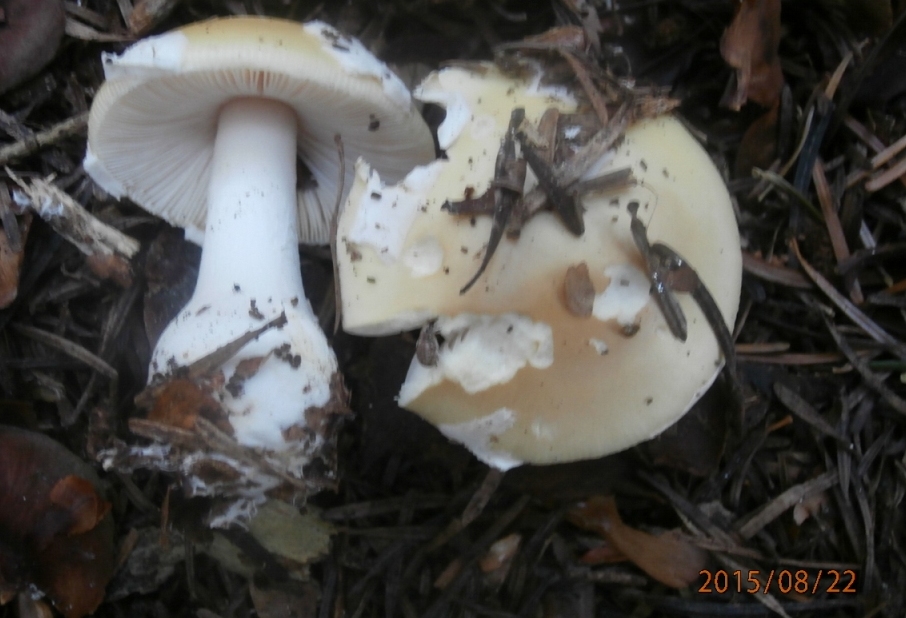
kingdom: Fungi
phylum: Basidiomycota
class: Agaricomycetes
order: Agaricales
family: Amanitaceae
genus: Amanita
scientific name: Amanita gemmata
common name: okkergul fluesvamp
